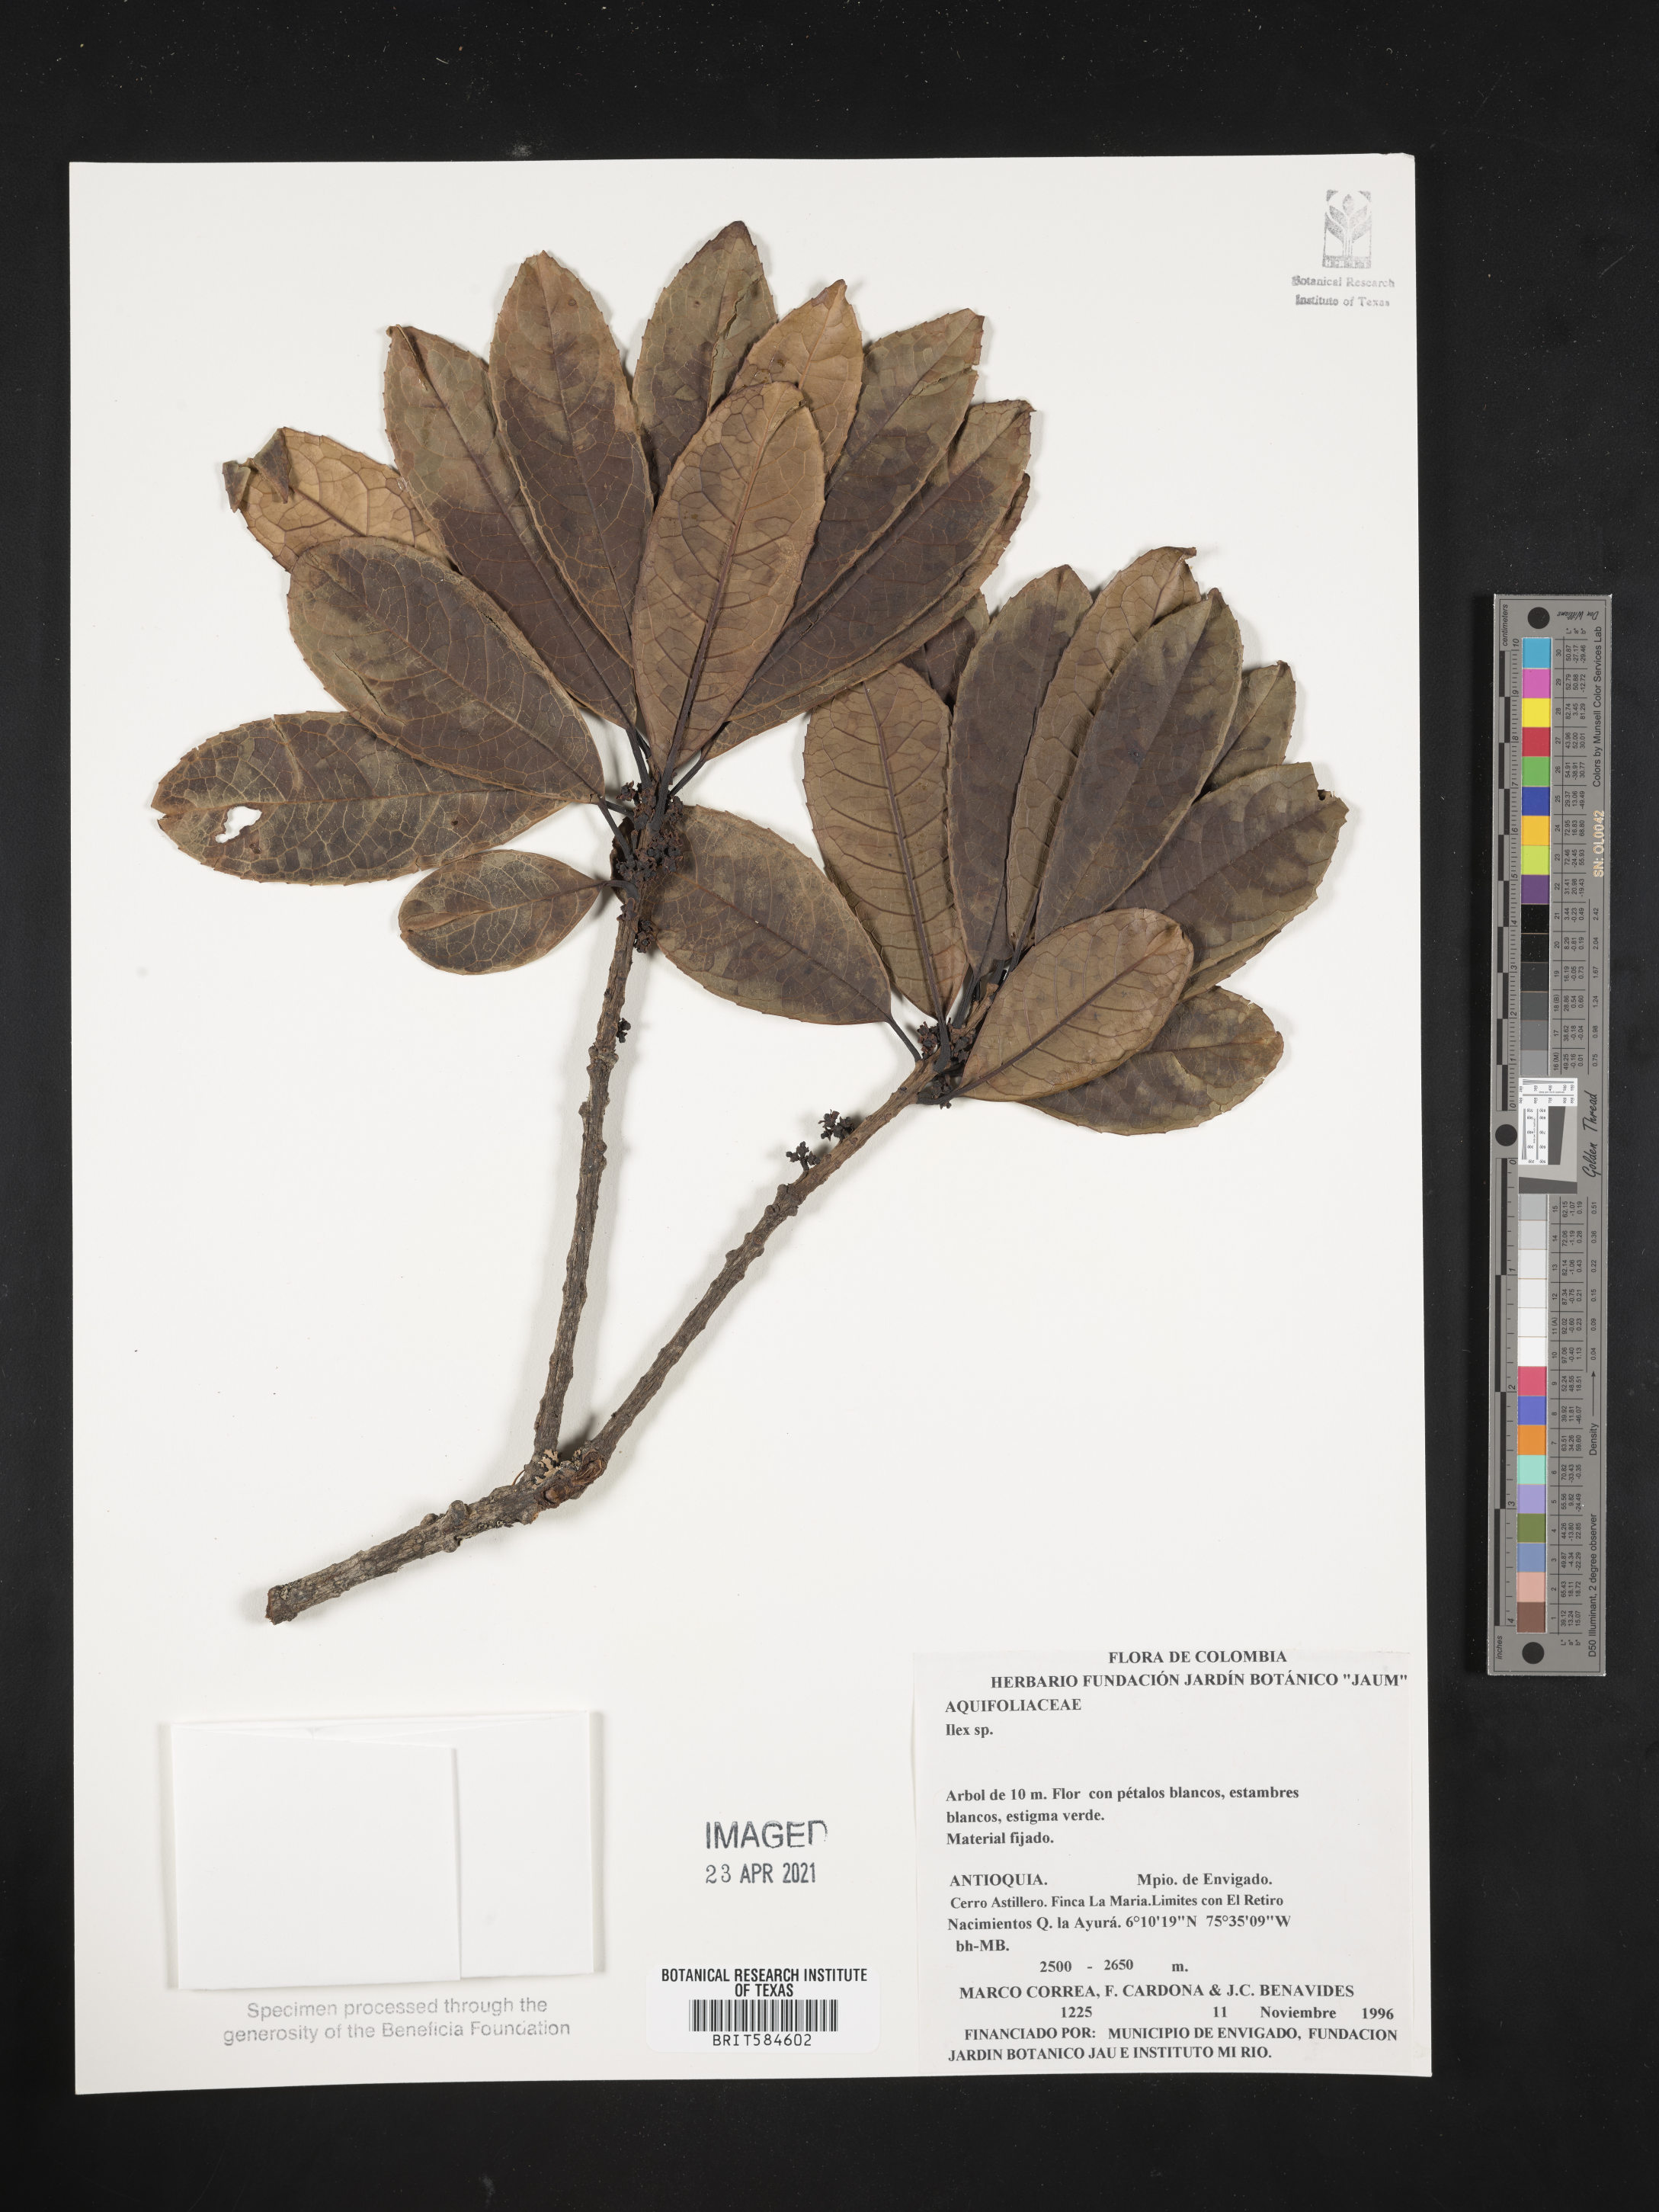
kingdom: Plantae
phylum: Tracheophyta
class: Magnoliopsida
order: Aquifoliales
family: Aquifoliaceae
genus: Ilex
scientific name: Ilex
